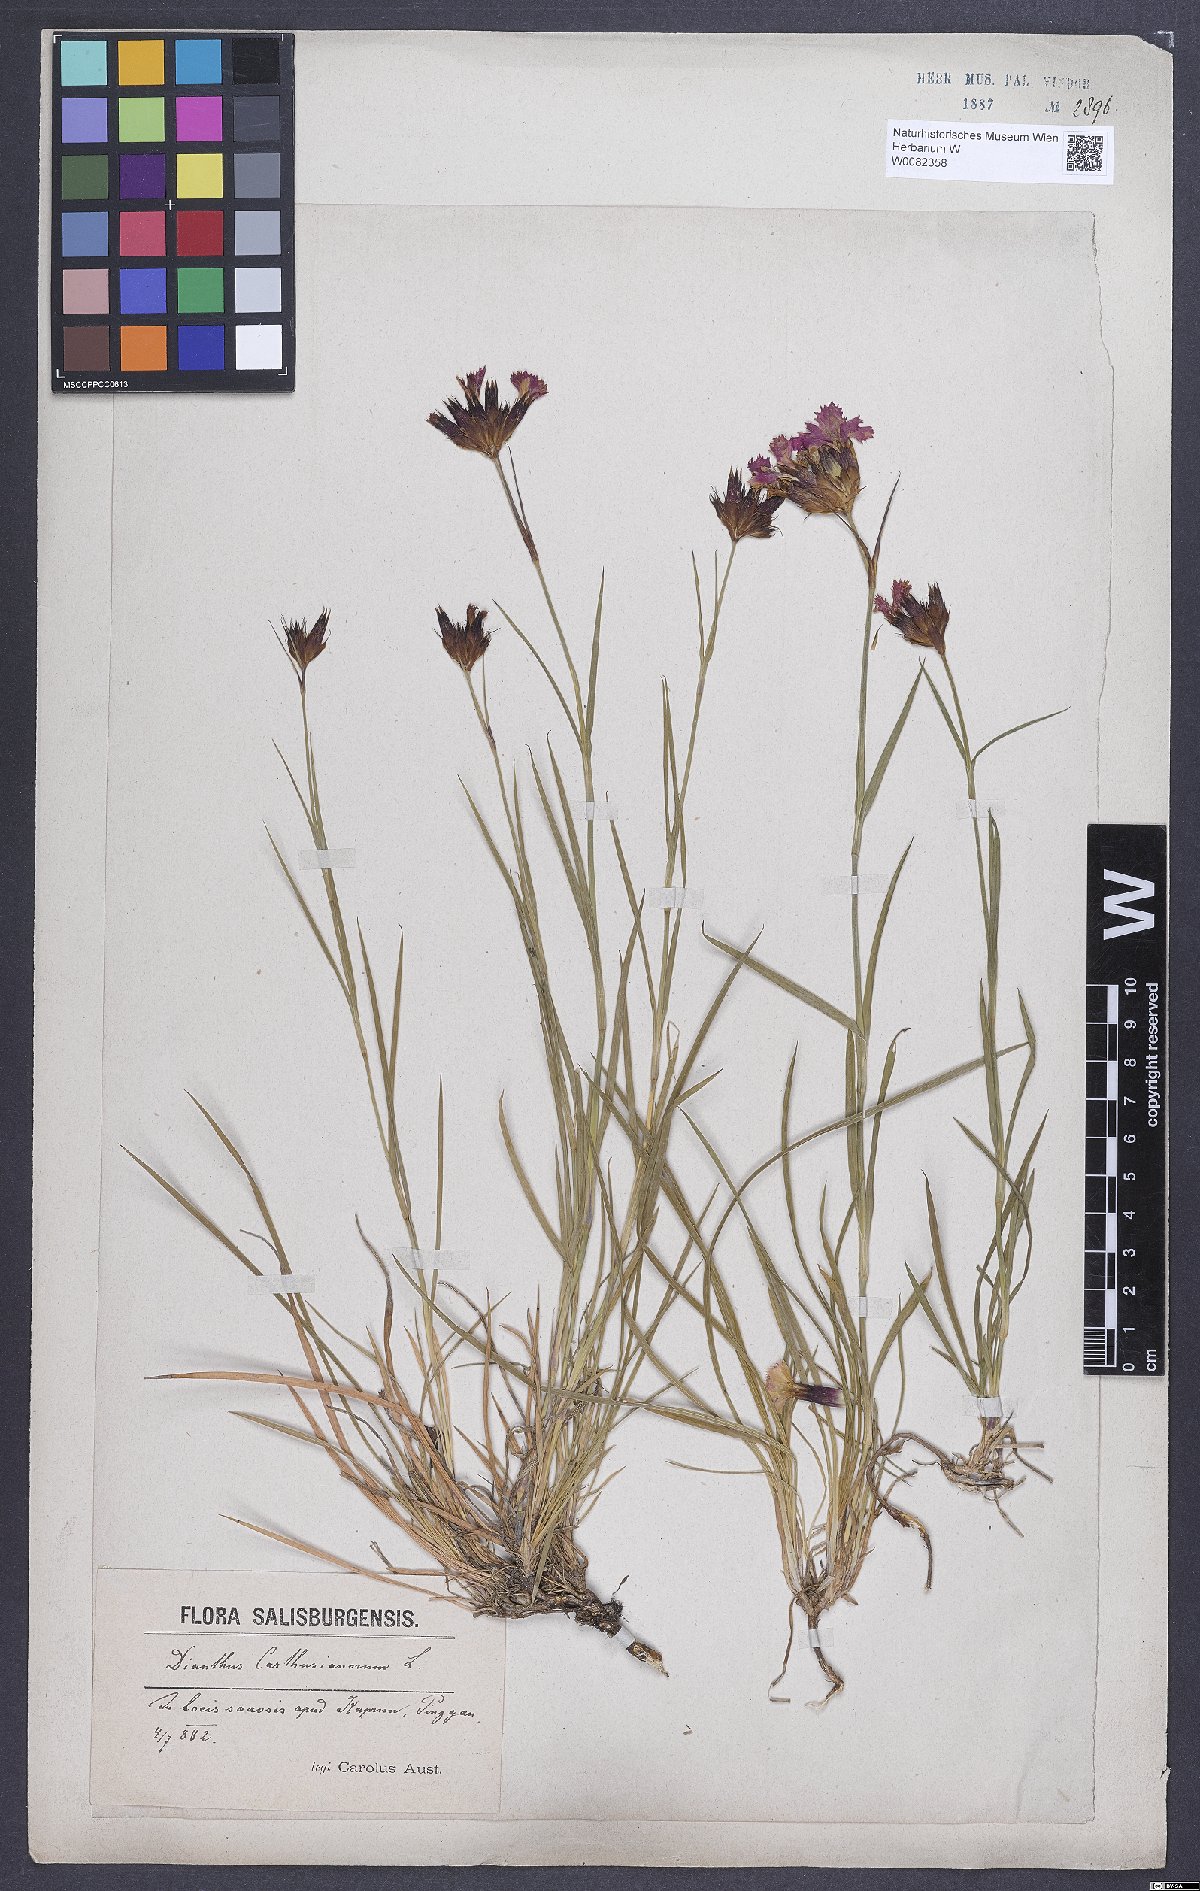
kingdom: Plantae
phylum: Tracheophyta
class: Magnoliopsida
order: Caryophyllales
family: Caryophyllaceae
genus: Dianthus
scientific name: Dianthus carthusianorum
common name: Carthusian pink
